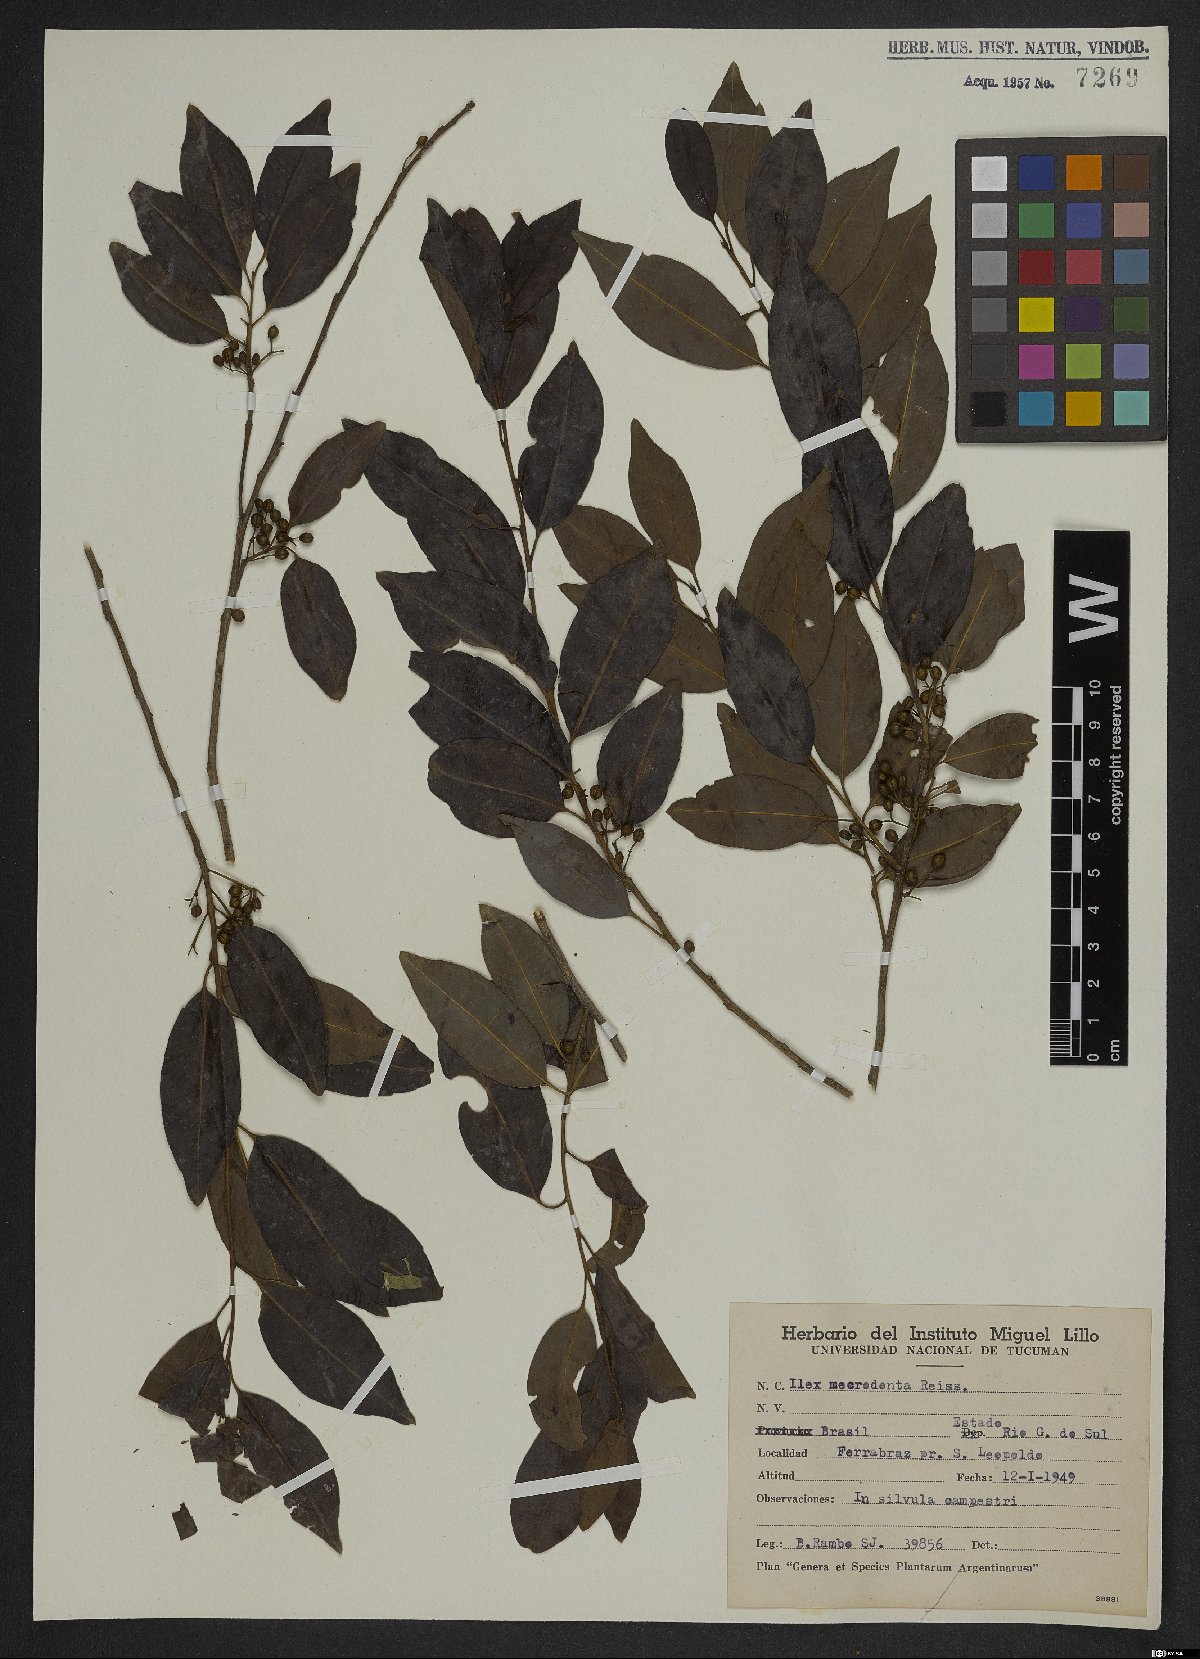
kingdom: Plantae
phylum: Tracheophyta
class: Magnoliopsida
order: Aquifoliales
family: Aquifoliaceae
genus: Ilex
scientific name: Ilex microdonta
